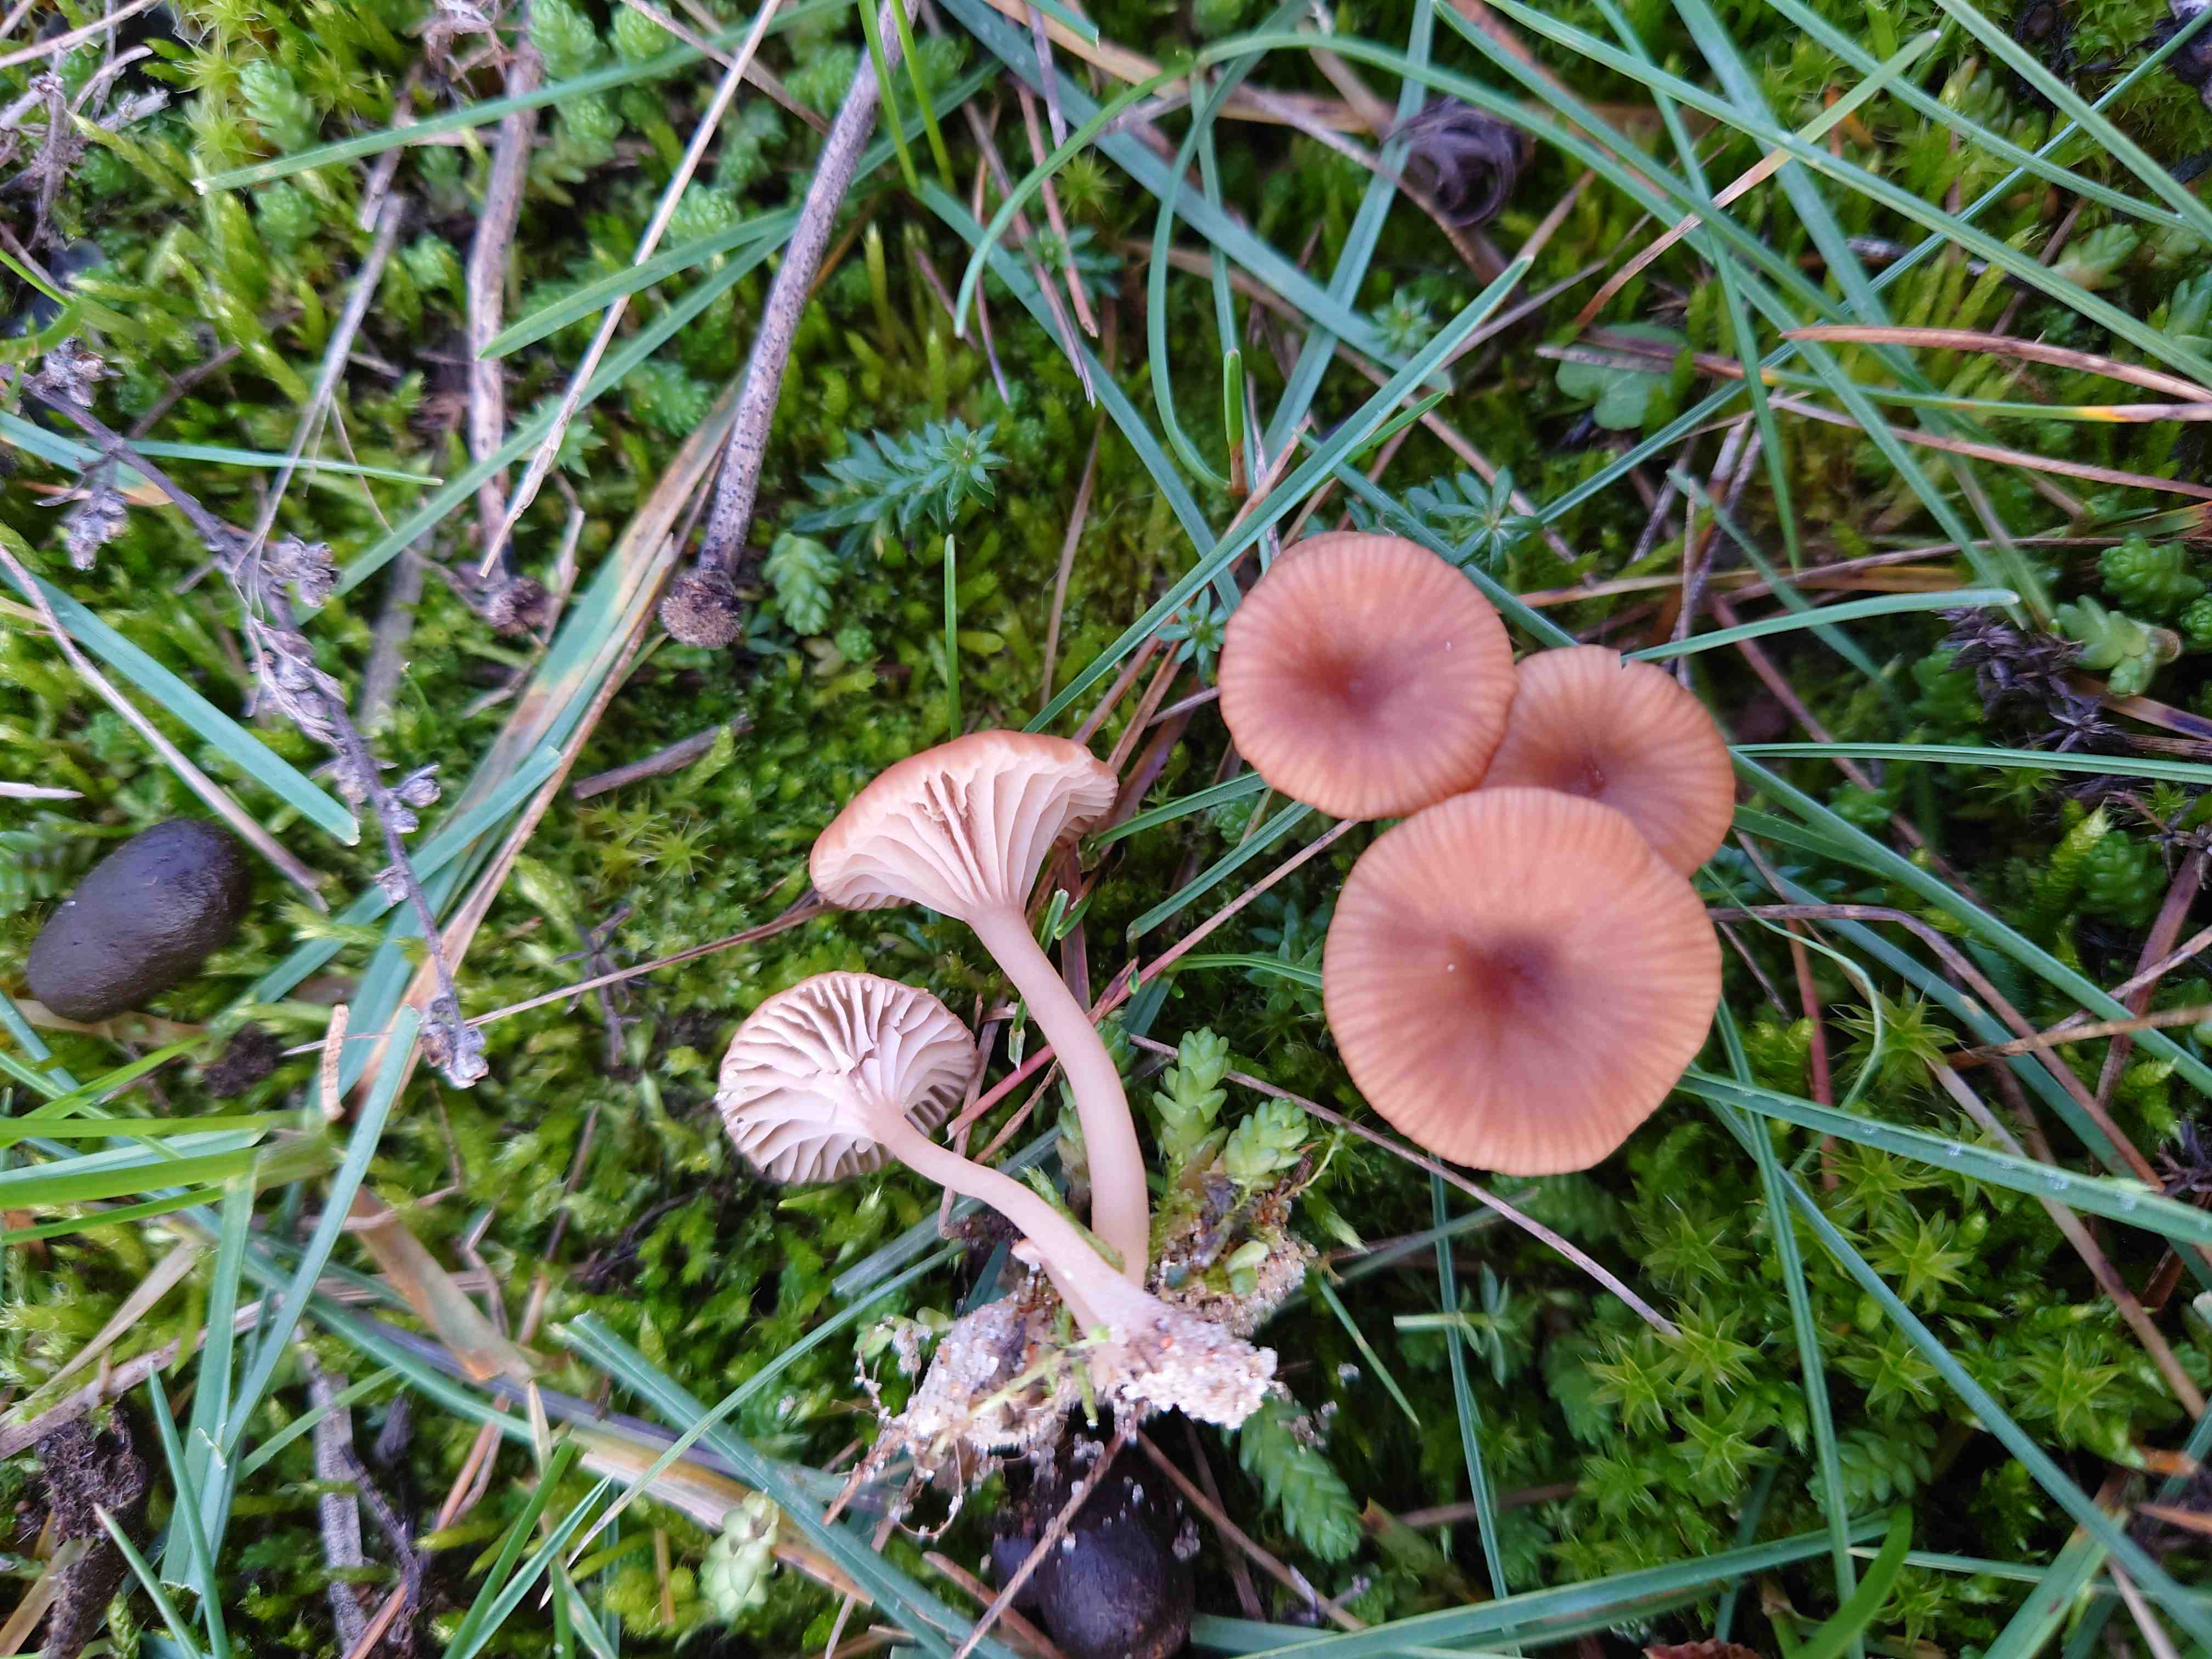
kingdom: Fungi
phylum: Basidiomycota
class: Agaricomycetes
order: Agaricales
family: Tricholomataceae
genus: Omphalina
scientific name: Omphalina pyxidata
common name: rødbrun navlehat
